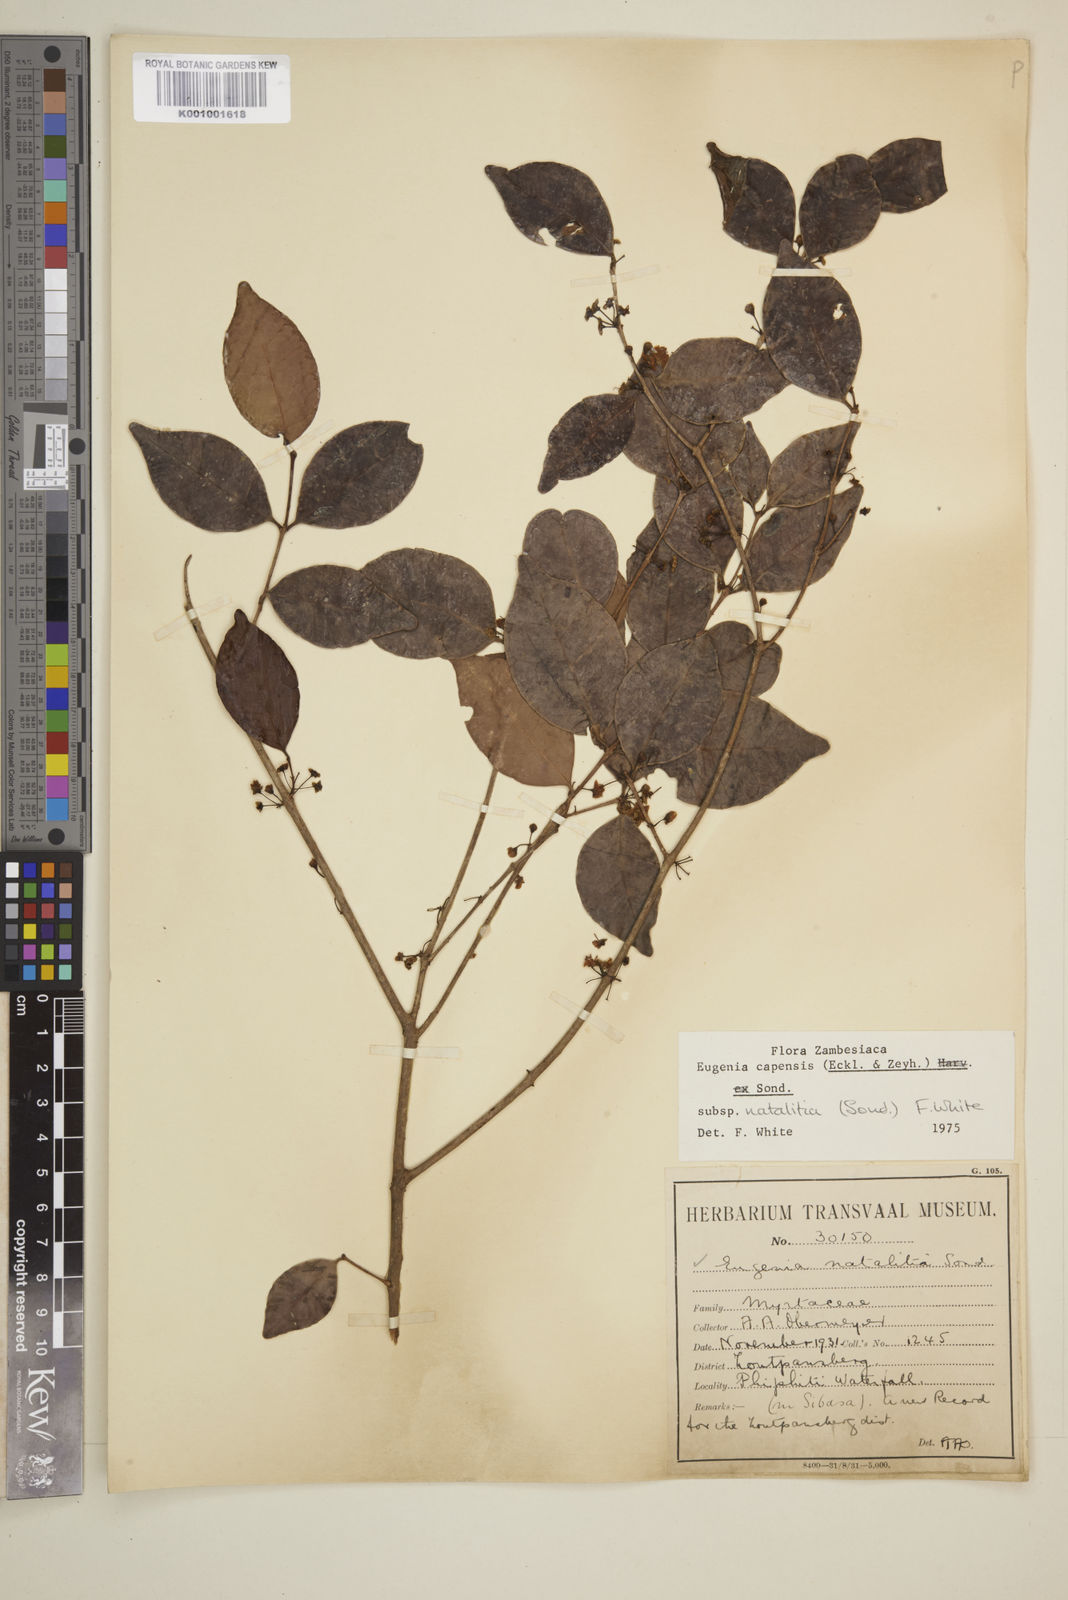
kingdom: Plantae
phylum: Tracheophyta
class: Magnoliopsida
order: Myrtales
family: Myrtaceae
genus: Eugenia
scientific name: Eugenia natalitia
